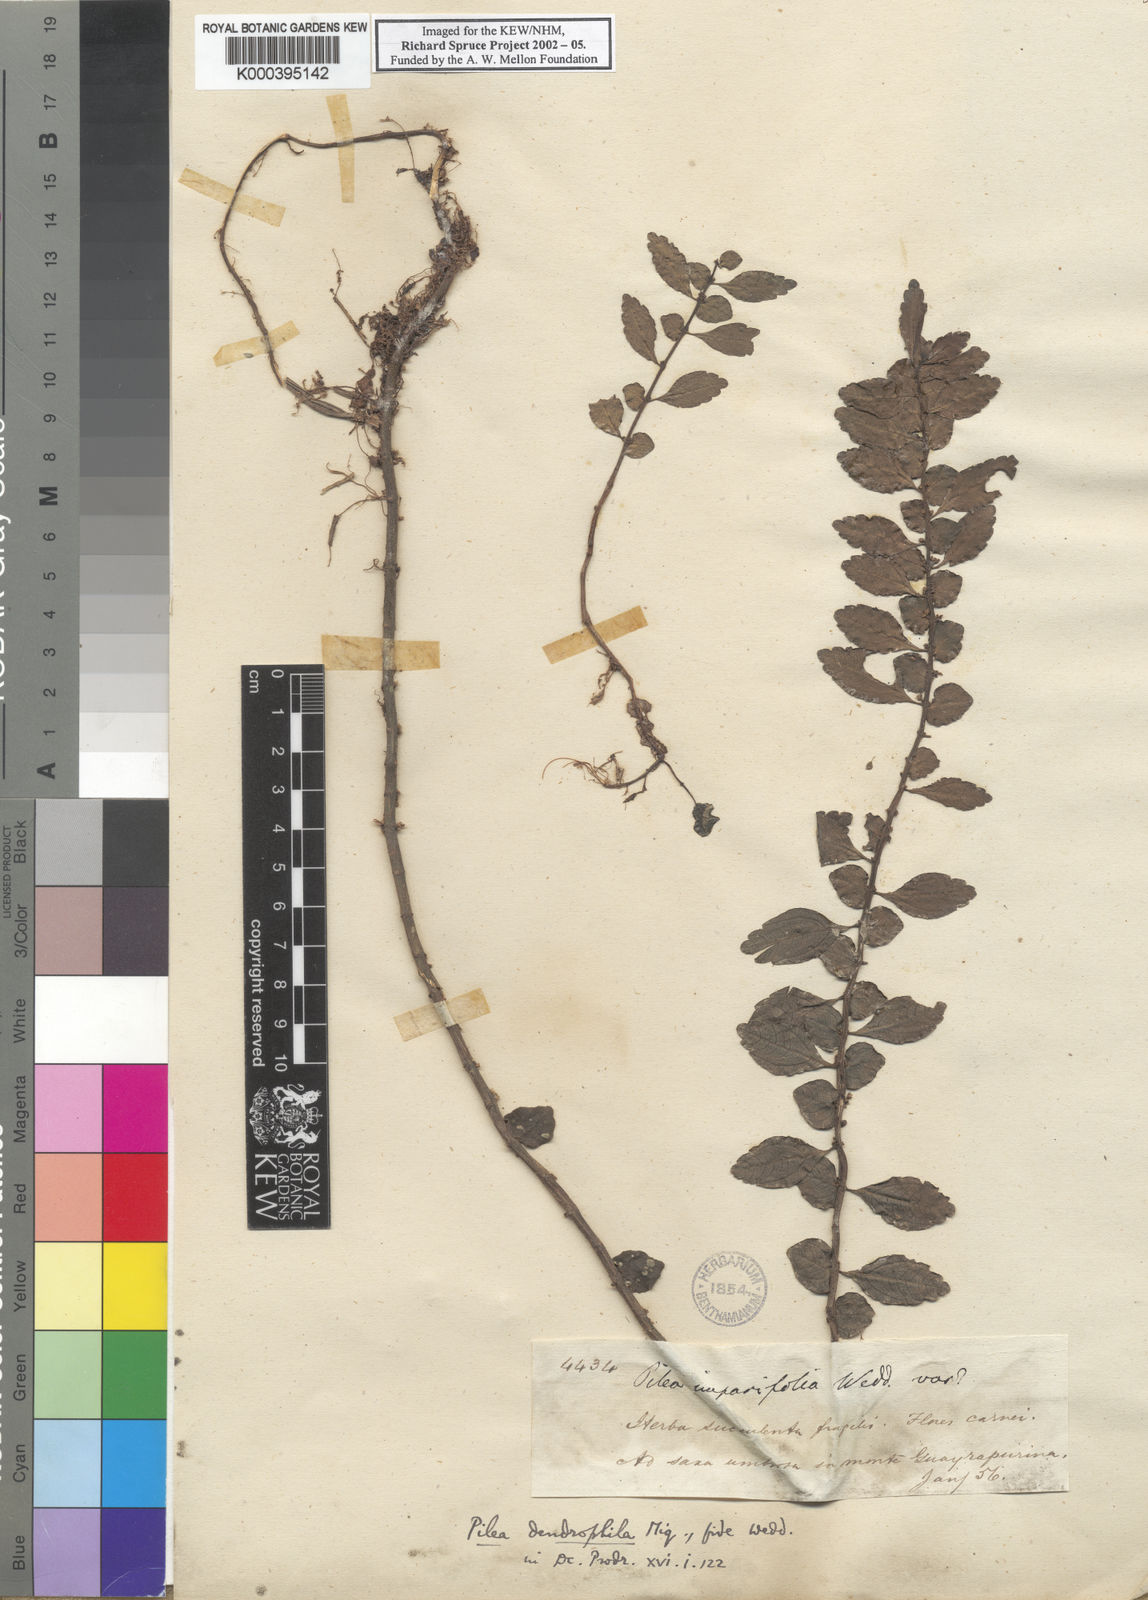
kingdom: Plantae
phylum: Tracheophyta
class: Magnoliopsida
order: Rosales
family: Urticaceae
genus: Pilea
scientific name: Pilea imparifolia
